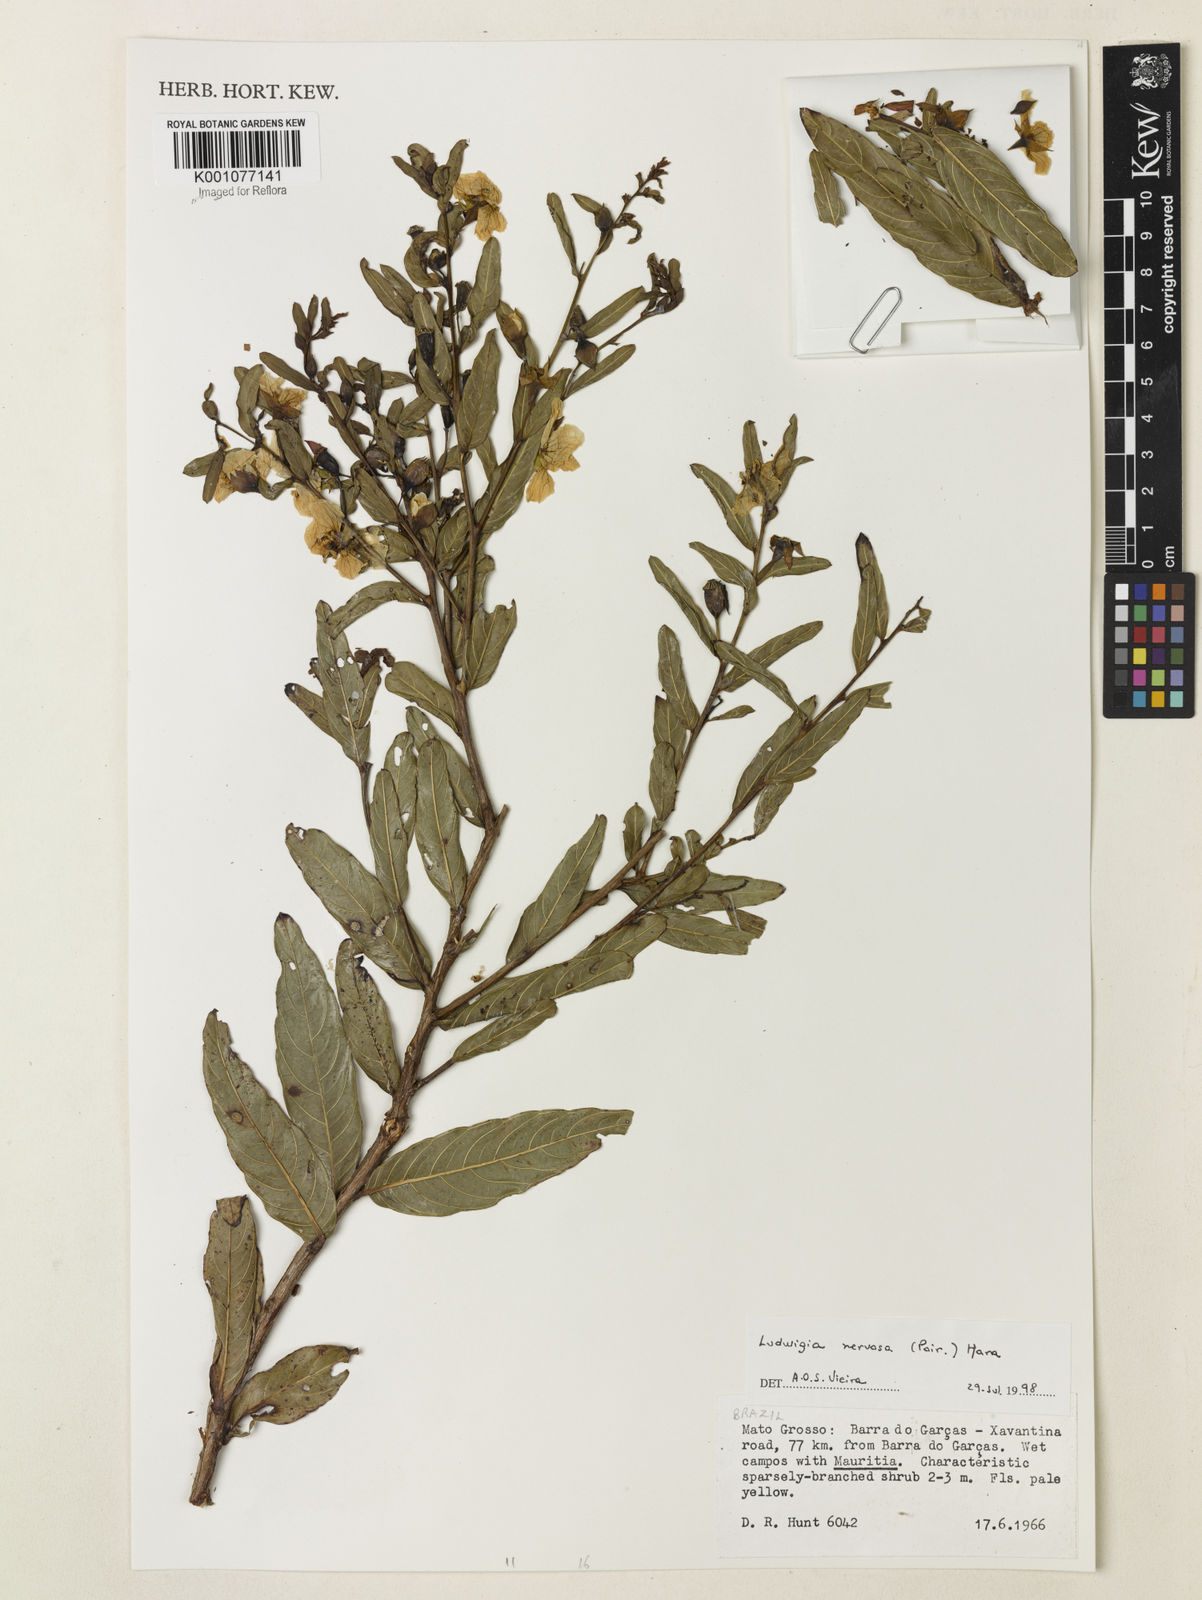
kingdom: Plantae
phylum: Tracheophyta
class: Magnoliopsida
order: Myrtales
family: Onagraceae
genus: Ludwigia
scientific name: Ludwigia nervosa
